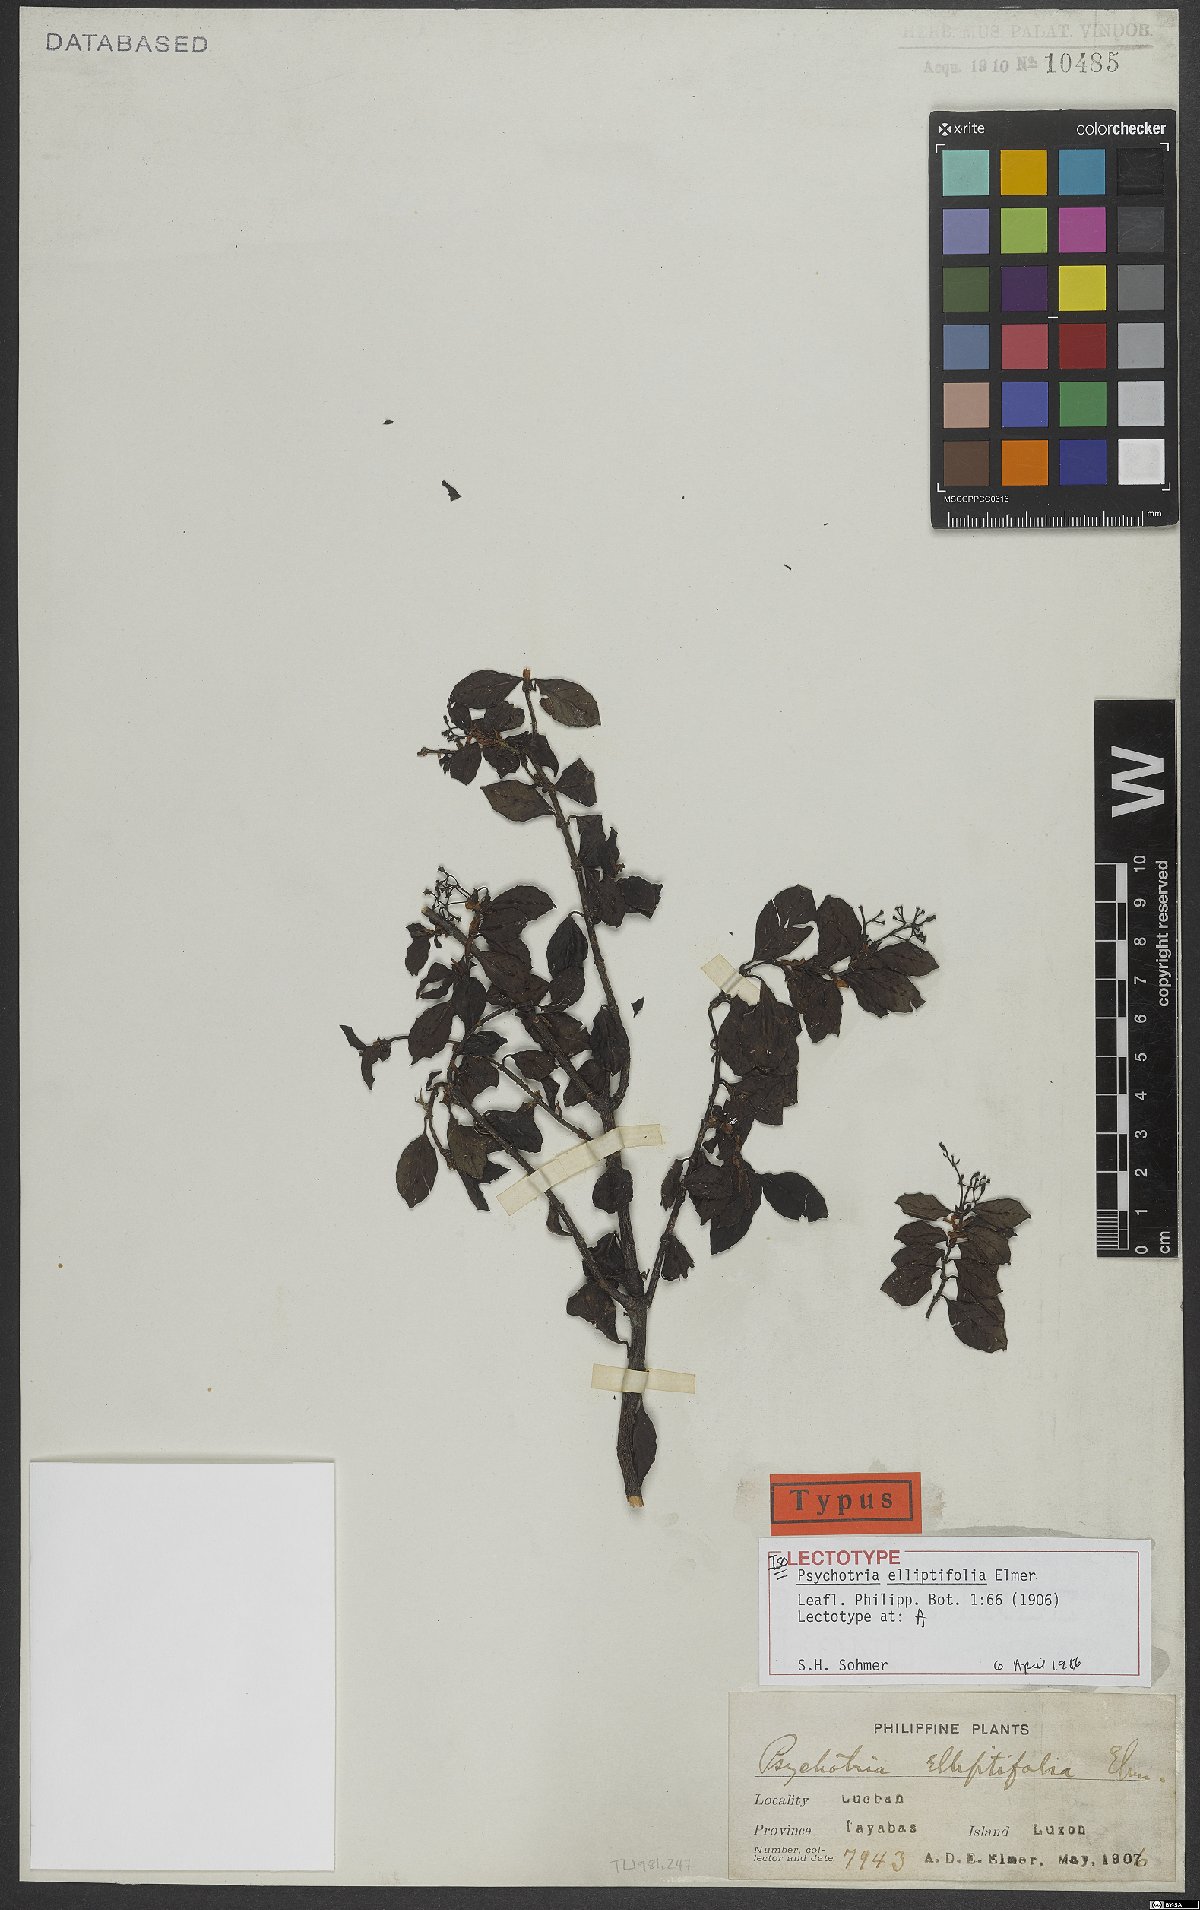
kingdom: Plantae
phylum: Tracheophyta
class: Magnoliopsida
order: Gentianales
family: Rubiaceae
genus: Psychotria
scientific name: Psychotria elliptifolia
